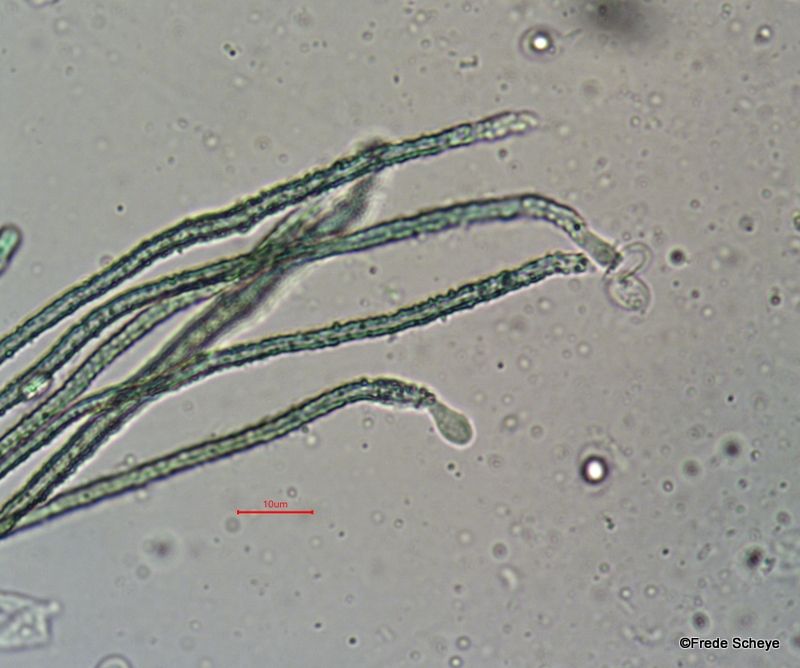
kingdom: Fungi
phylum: Basidiomycota
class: Agaricomycetes
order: Agaricales
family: Niaceae
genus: Merismodes
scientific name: Merismodes anomala
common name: almindelig læderskål
